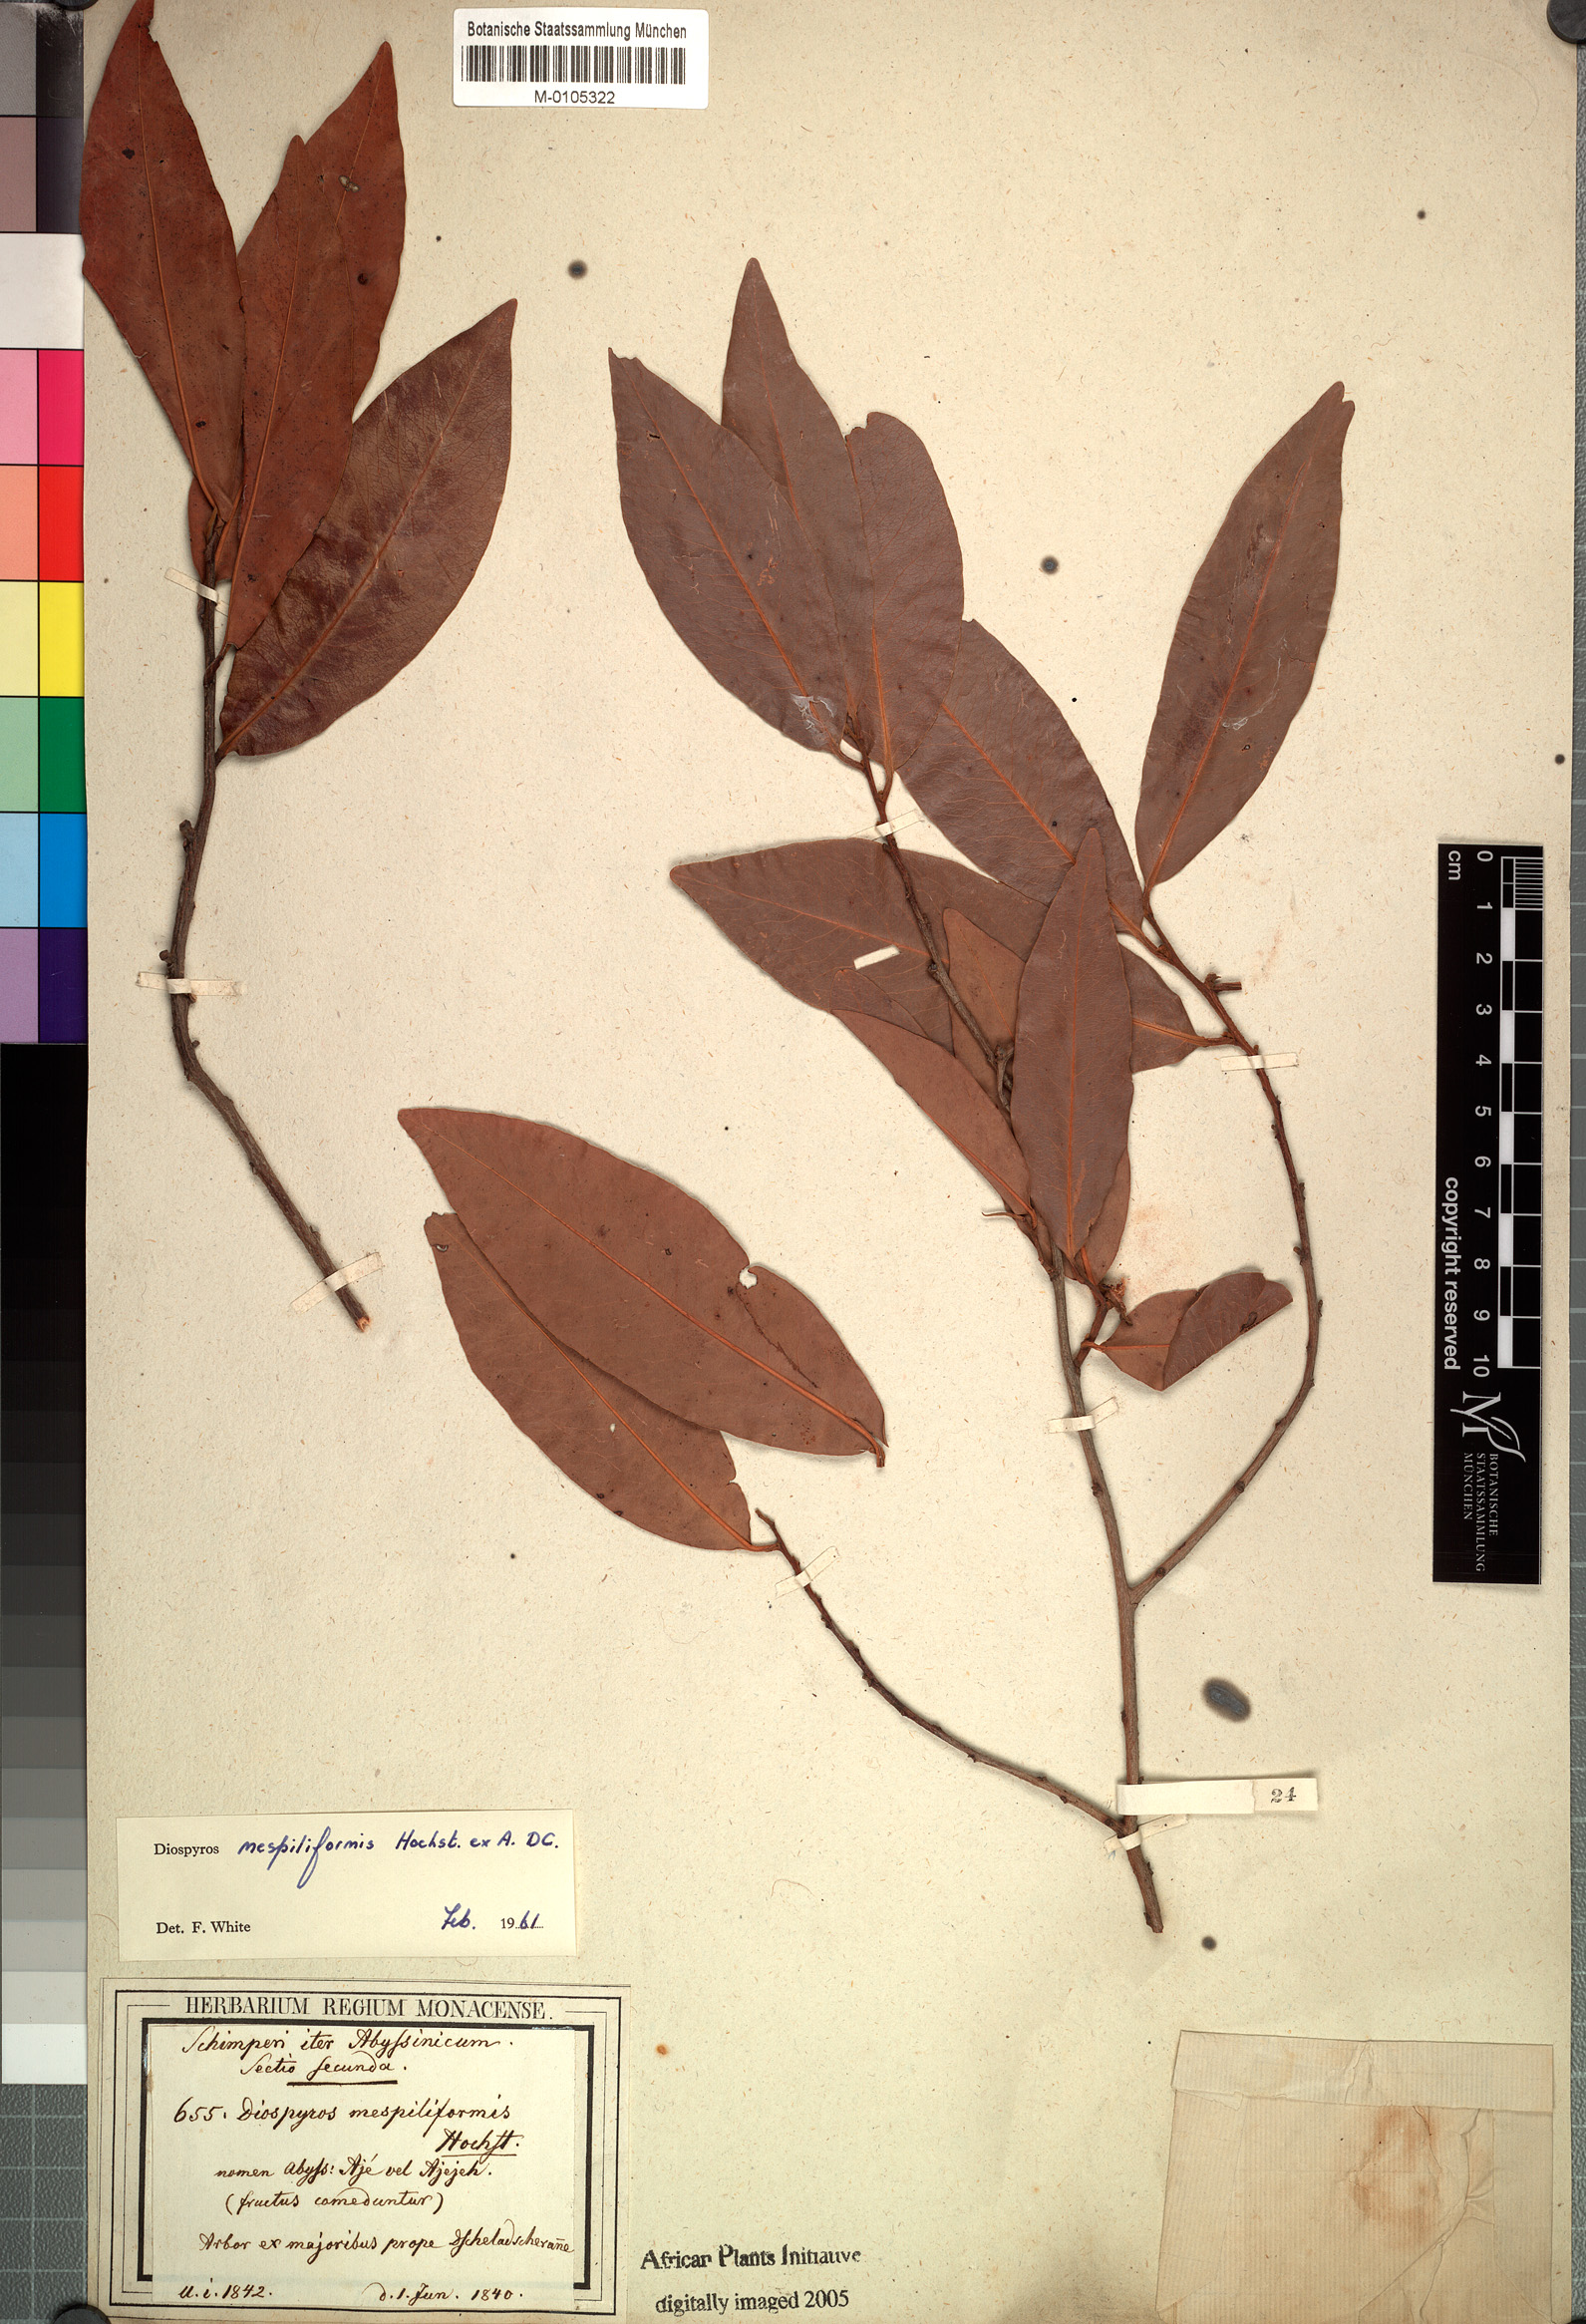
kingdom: Plantae
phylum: Tracheophyta
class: Magnoliopsida
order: Ericales
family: Ebenaceae
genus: Diospyros
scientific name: Diospyros mespiliformis
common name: Ebony diospyros
